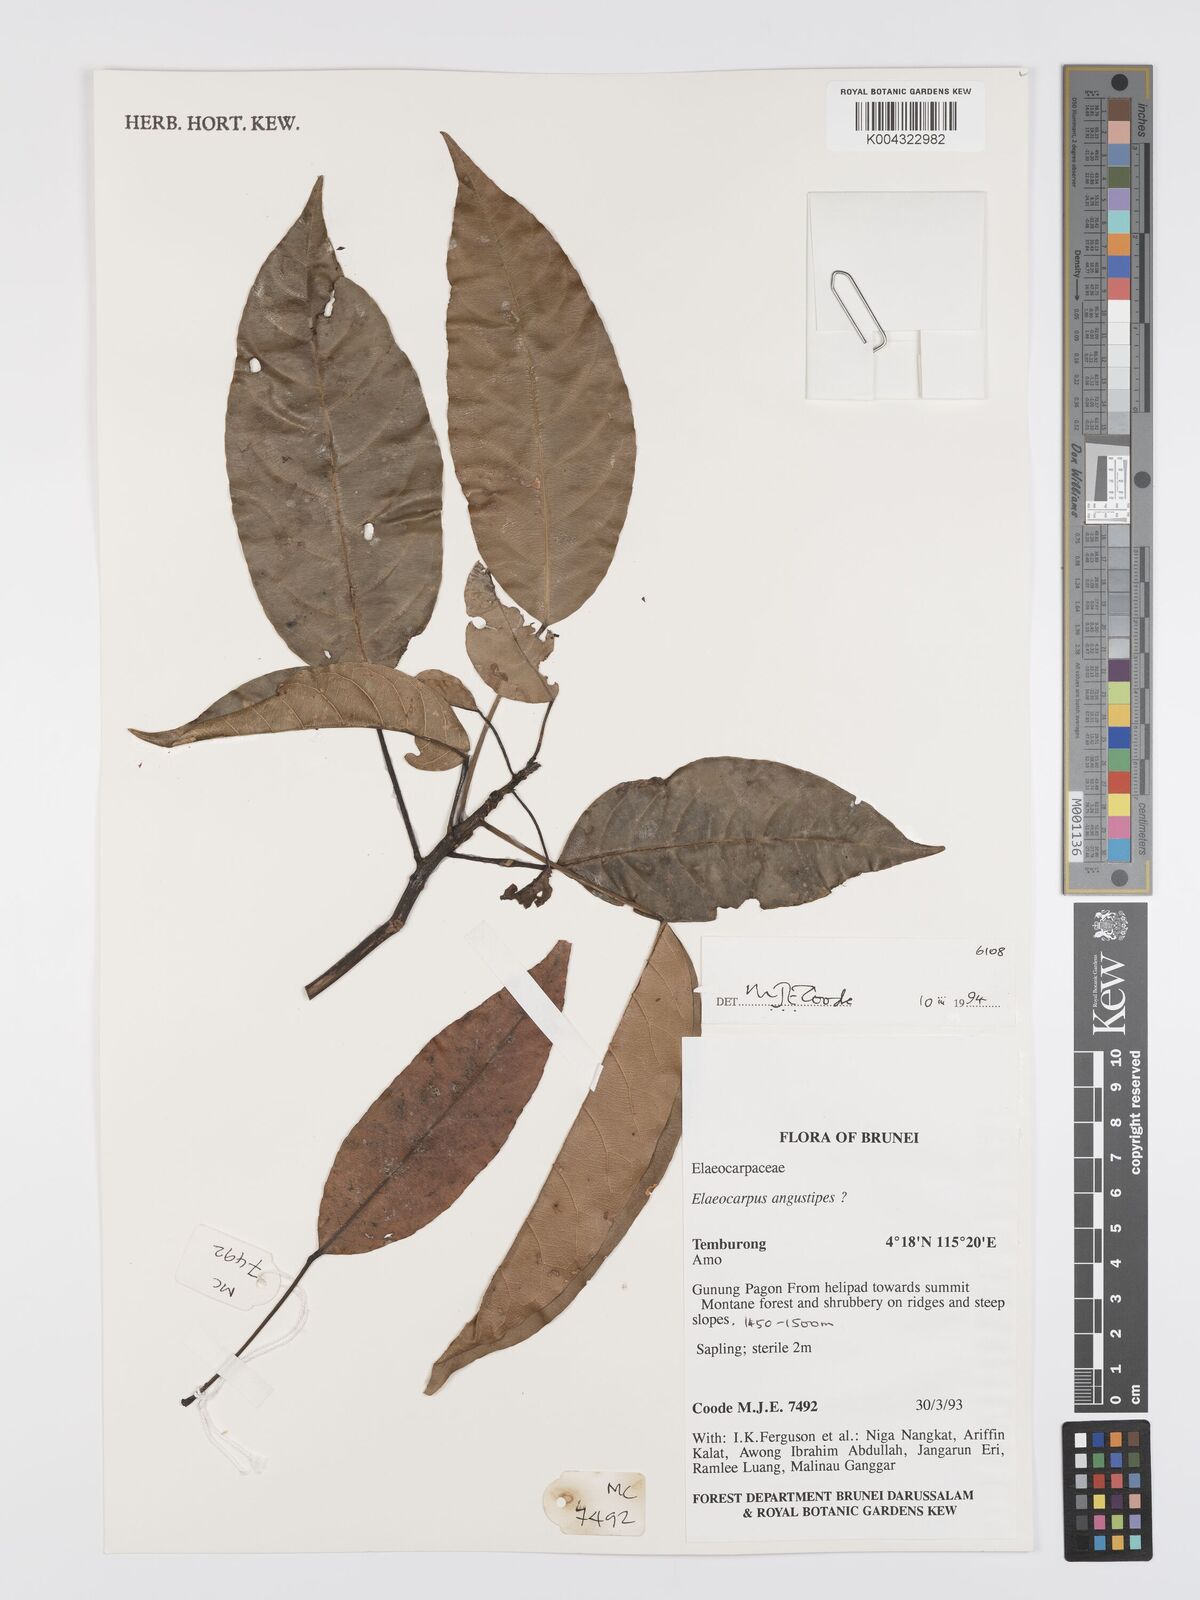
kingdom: Plantae
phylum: Tracheophyta
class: Magnoliopsida
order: Oxalidales
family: Elaeocarpaceae
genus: Elaeocarpus
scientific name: Elaeocarpus angustipes
